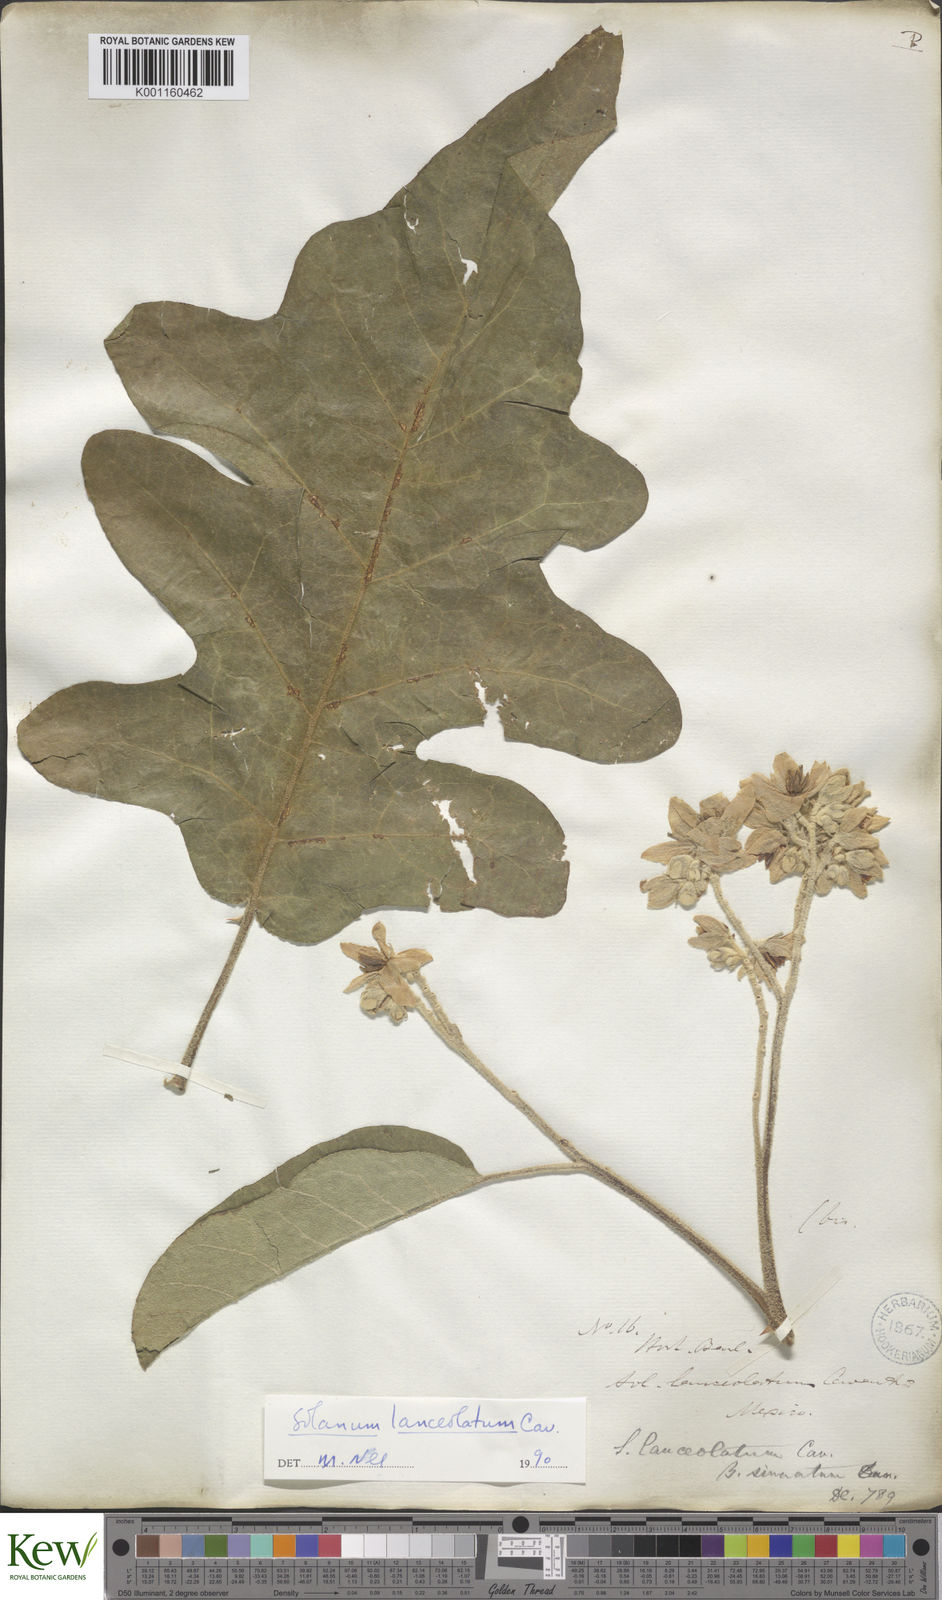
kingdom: Plantae
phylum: Tracheophyta
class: Magnoliopsida
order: Solanales
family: Solanaceae
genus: Solanum
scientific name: Solanum lanceolatum
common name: Orangeberry nightshade
